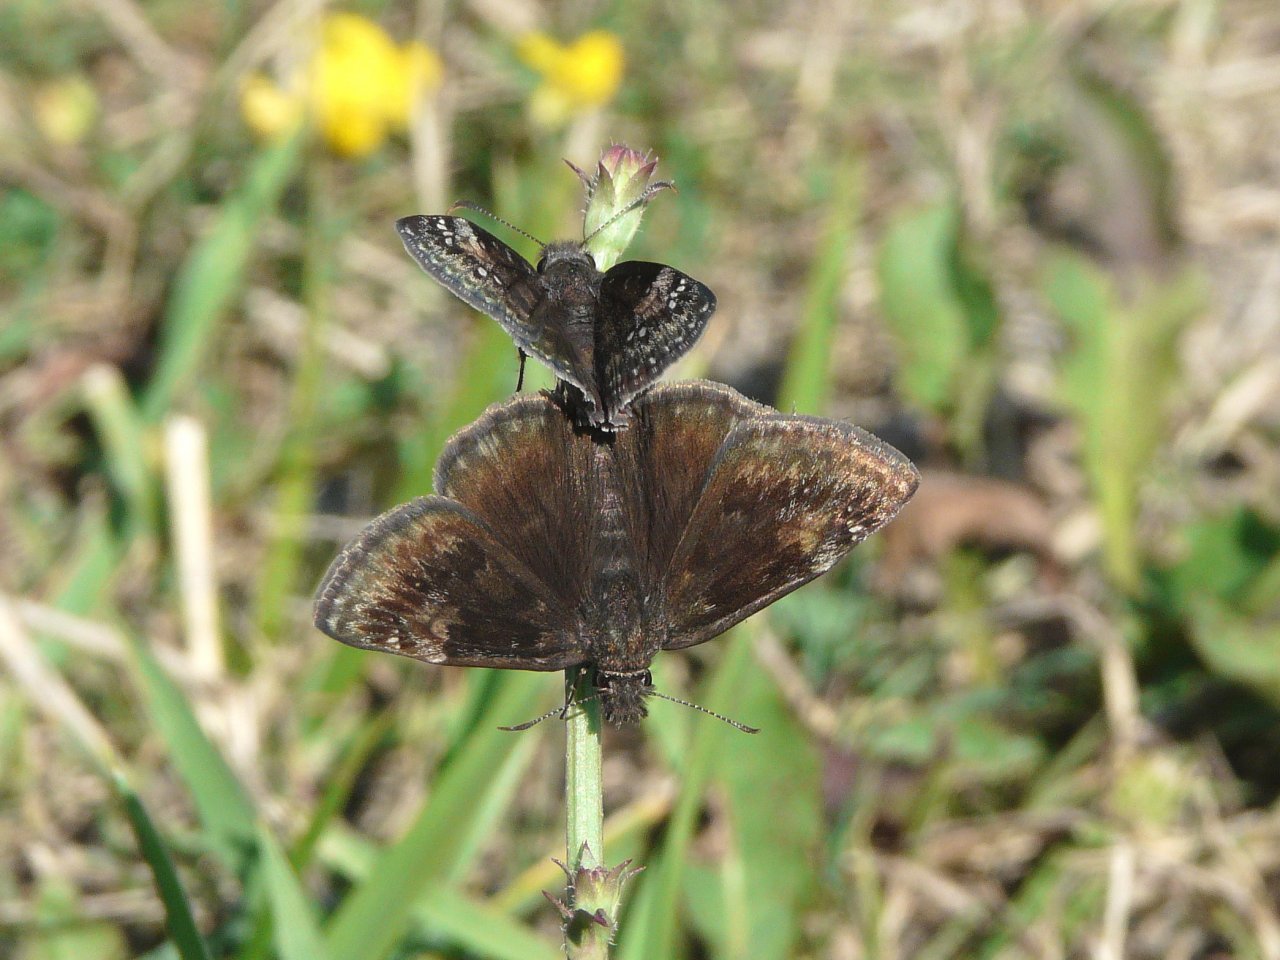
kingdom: Animalia
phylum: Arthropoda
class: Insecta
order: Lepidoptera
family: Hesperiidae
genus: Gesta
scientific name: Gesta
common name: Wild Indigo Duskywing
